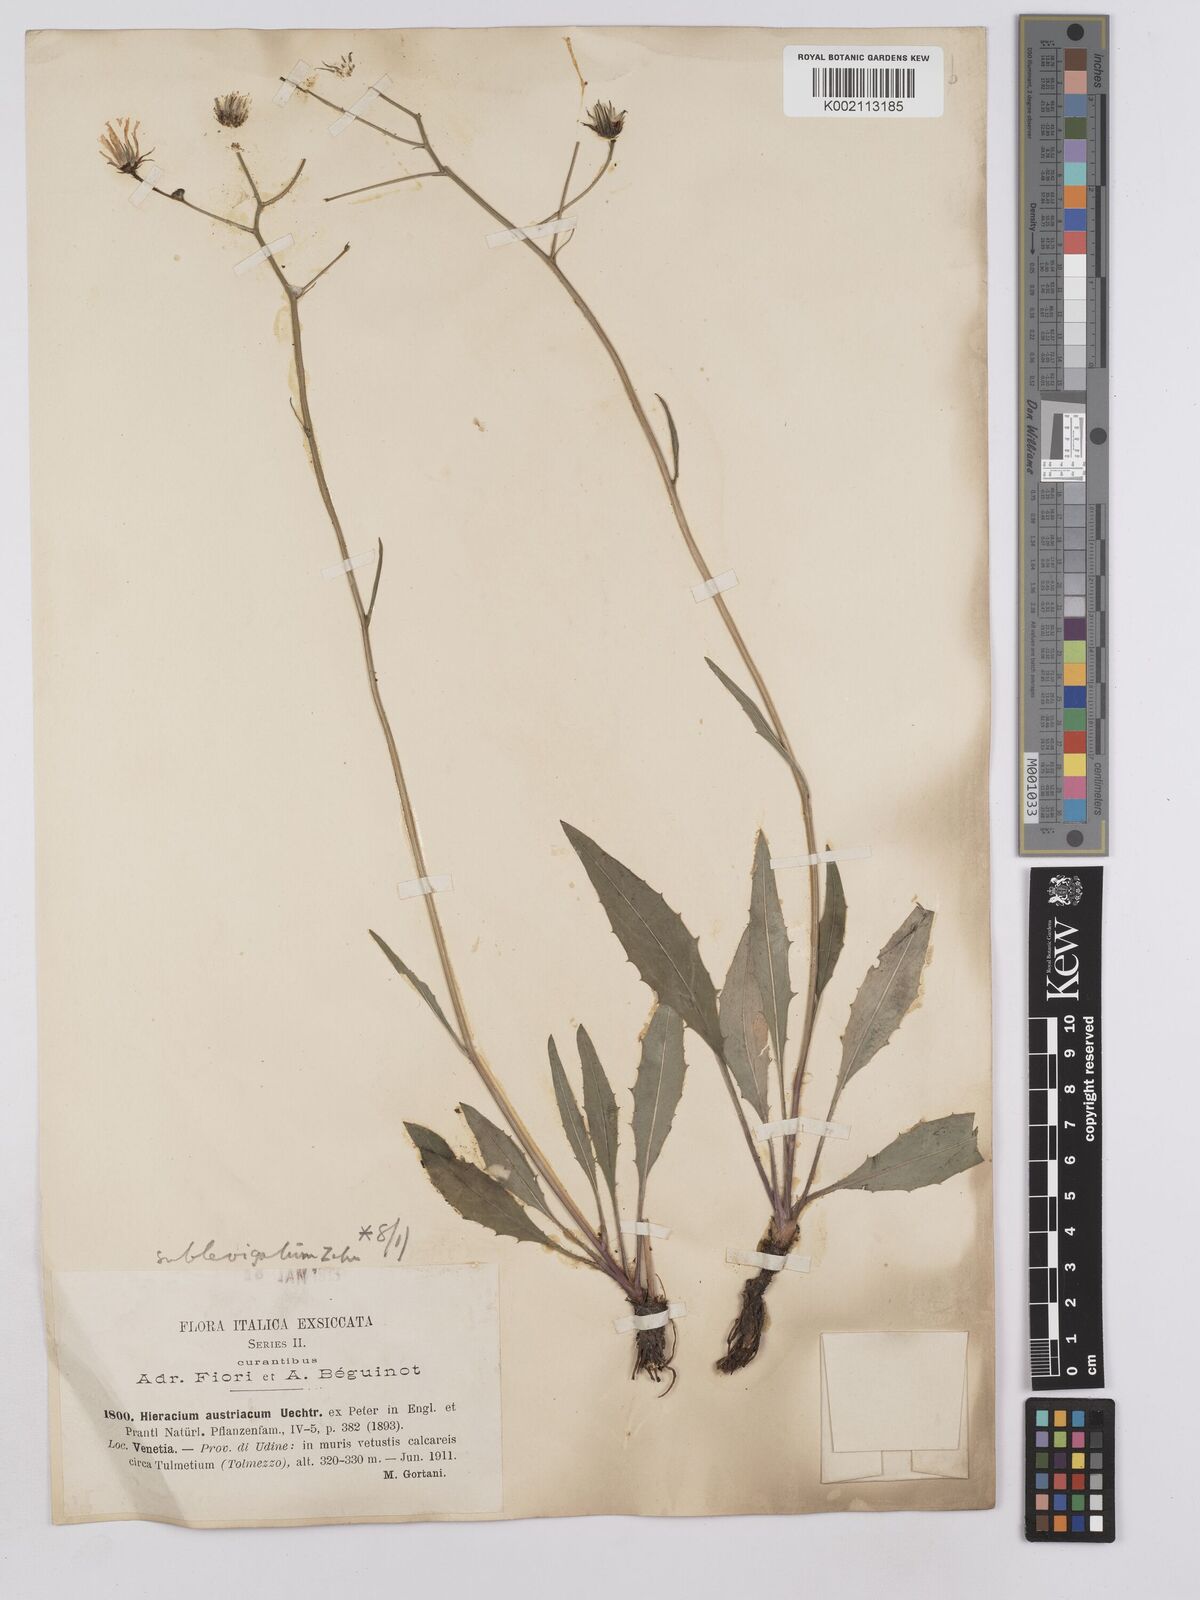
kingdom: Plantae
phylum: Tracheophyta
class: Magnoliopsida
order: Asterales
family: Asteraceae
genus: Hieracium
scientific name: Hieracium
